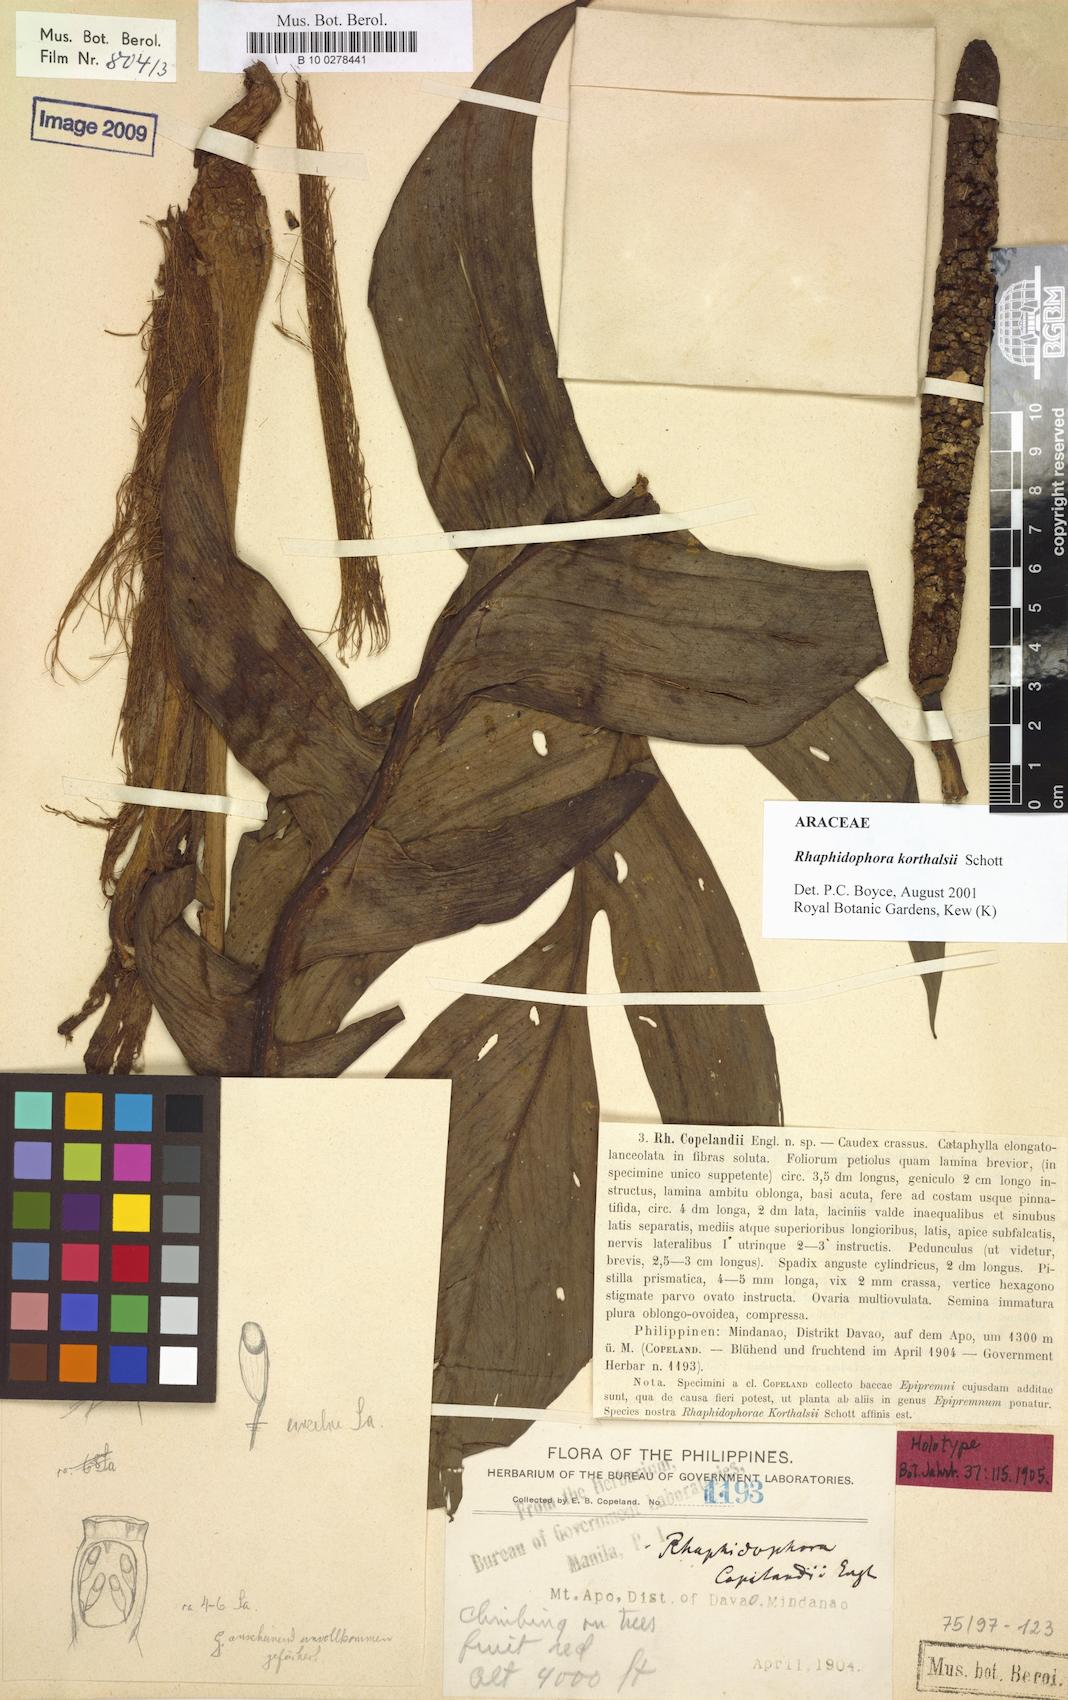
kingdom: Plantae
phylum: Tracheophyta
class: Liliopsida
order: Alismatales
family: Araceae
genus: Rhaphidophora
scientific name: Rhaphidophora korthalsii
